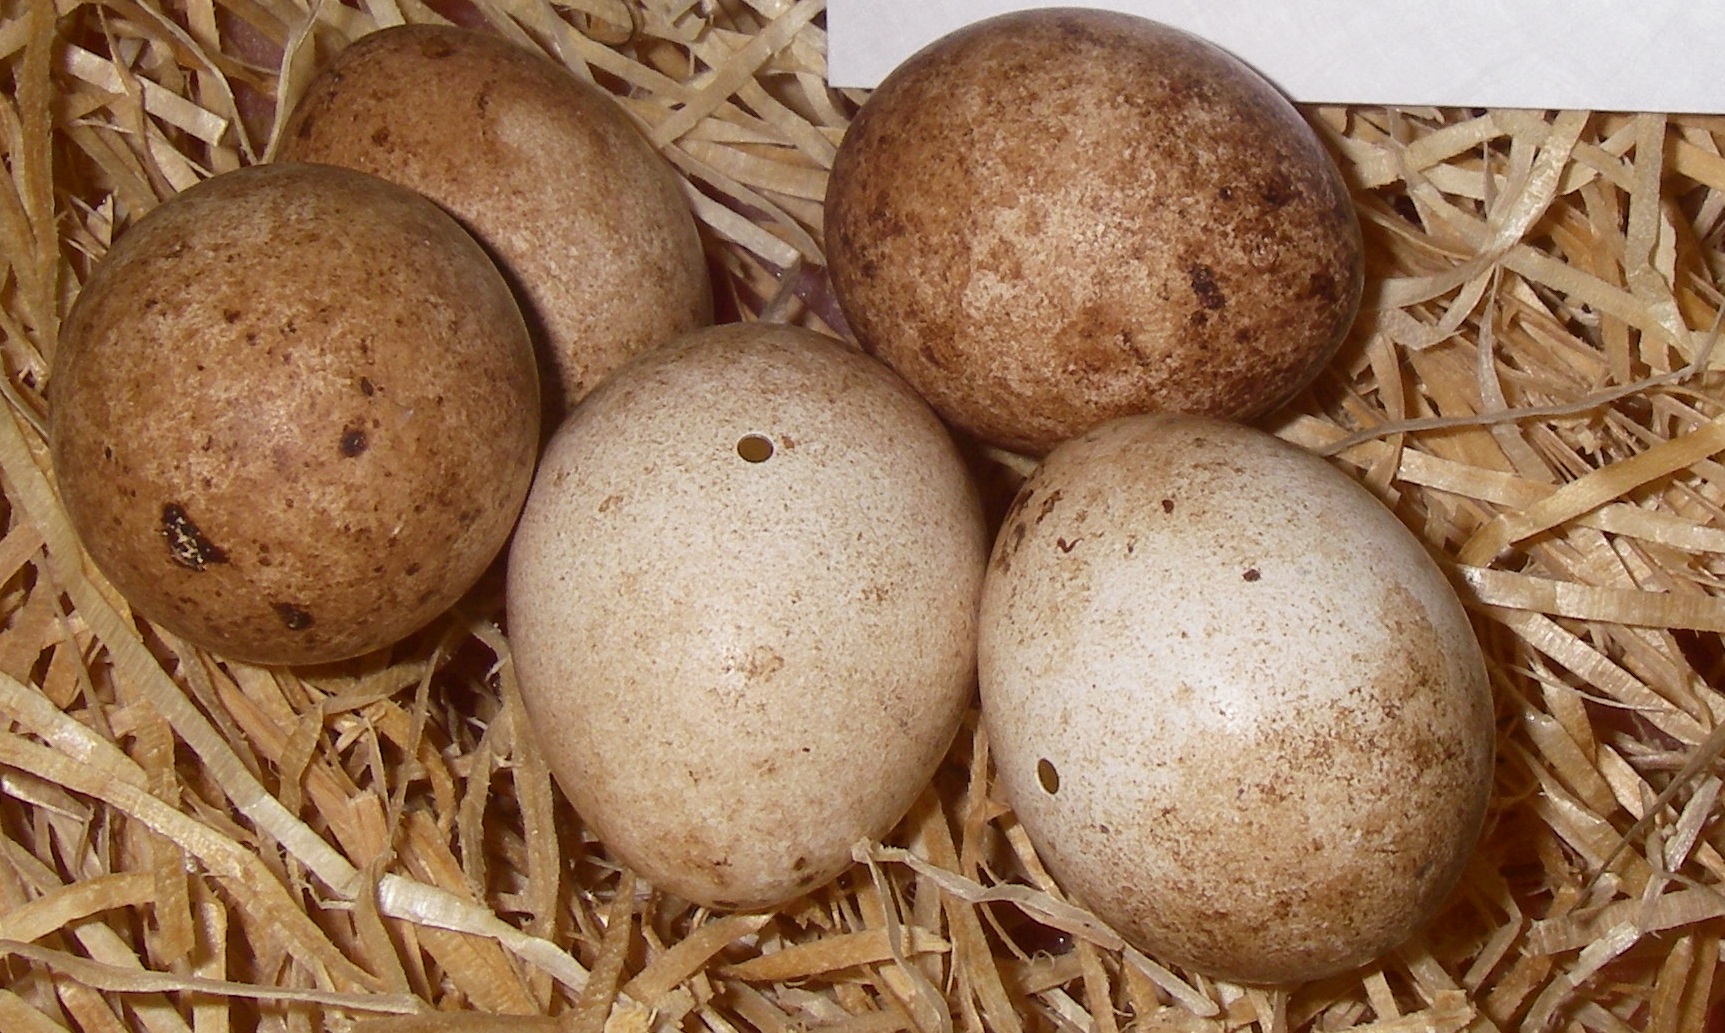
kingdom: Animalia
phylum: Chordata
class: Aves
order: Falconiformes
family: Falconidae
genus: Falco
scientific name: Falco tinnunculus
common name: Common kestrel
